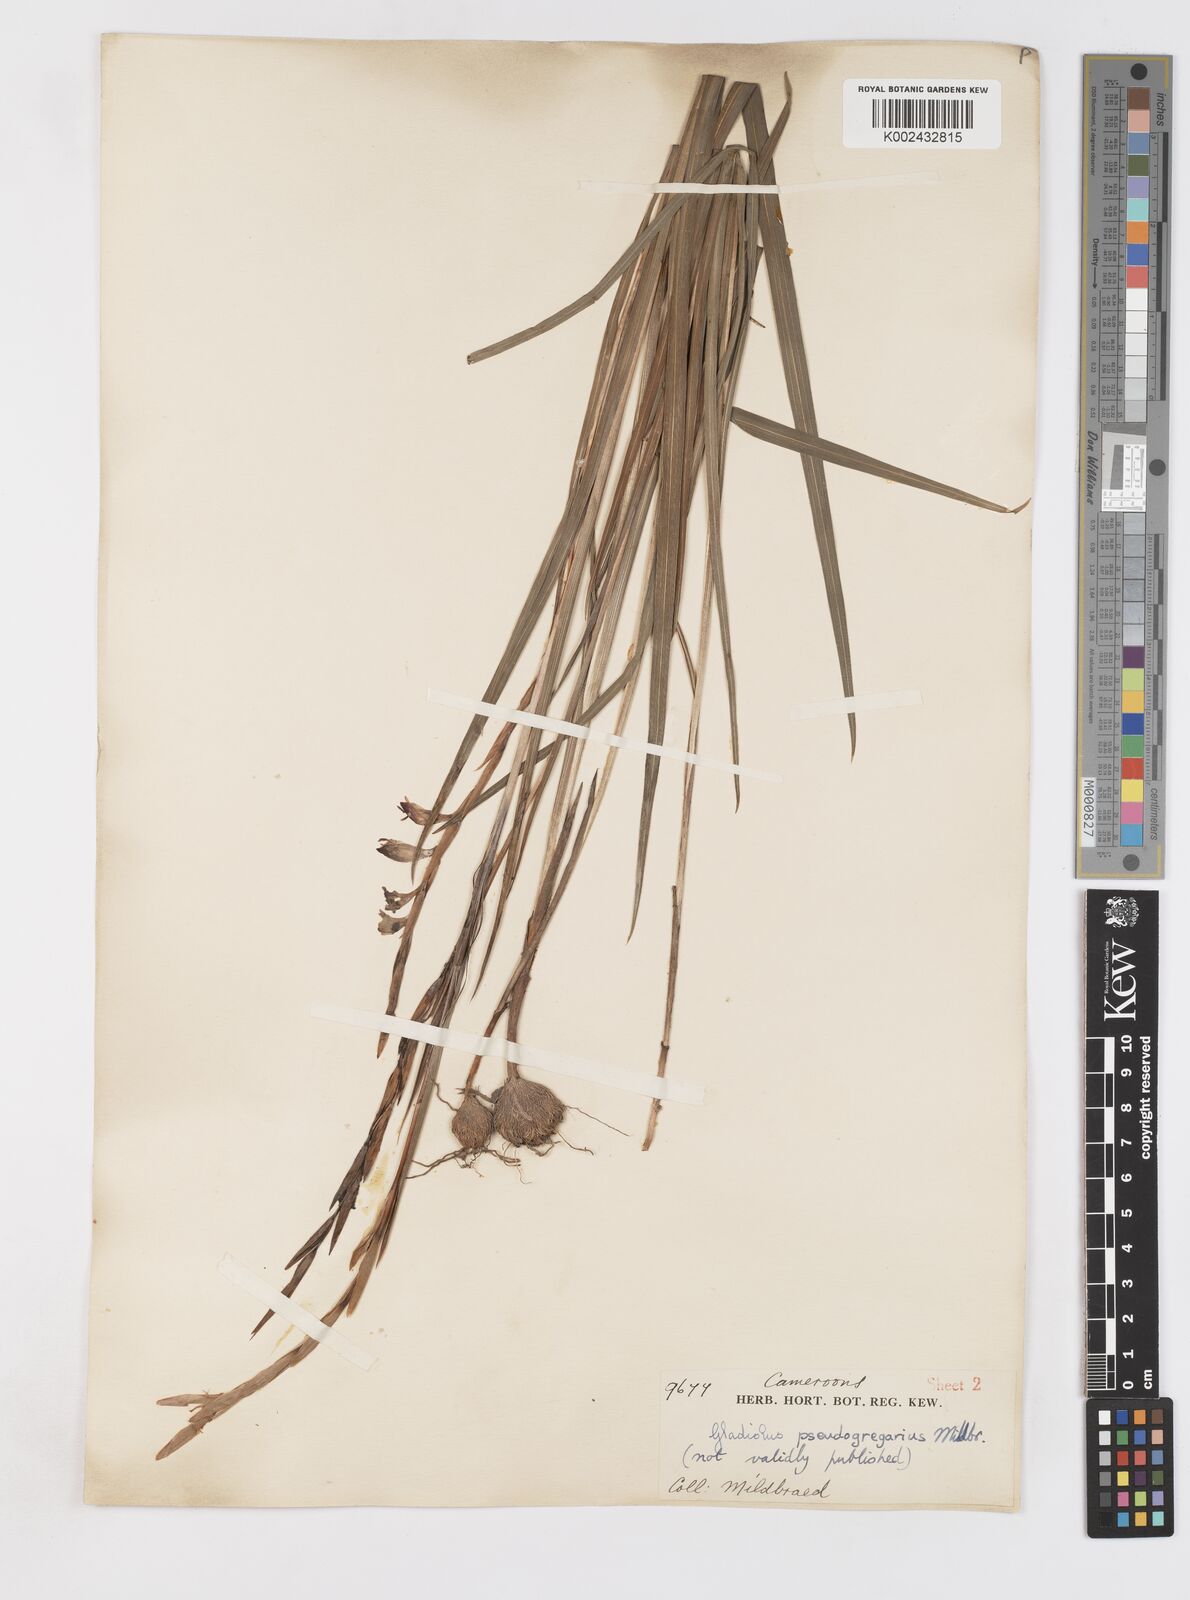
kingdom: Plantae
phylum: Tracheophyta
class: Liliopsida
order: Asparagales
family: Iridaceae
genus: Gladiolus
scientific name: Gladiolus gregarius
